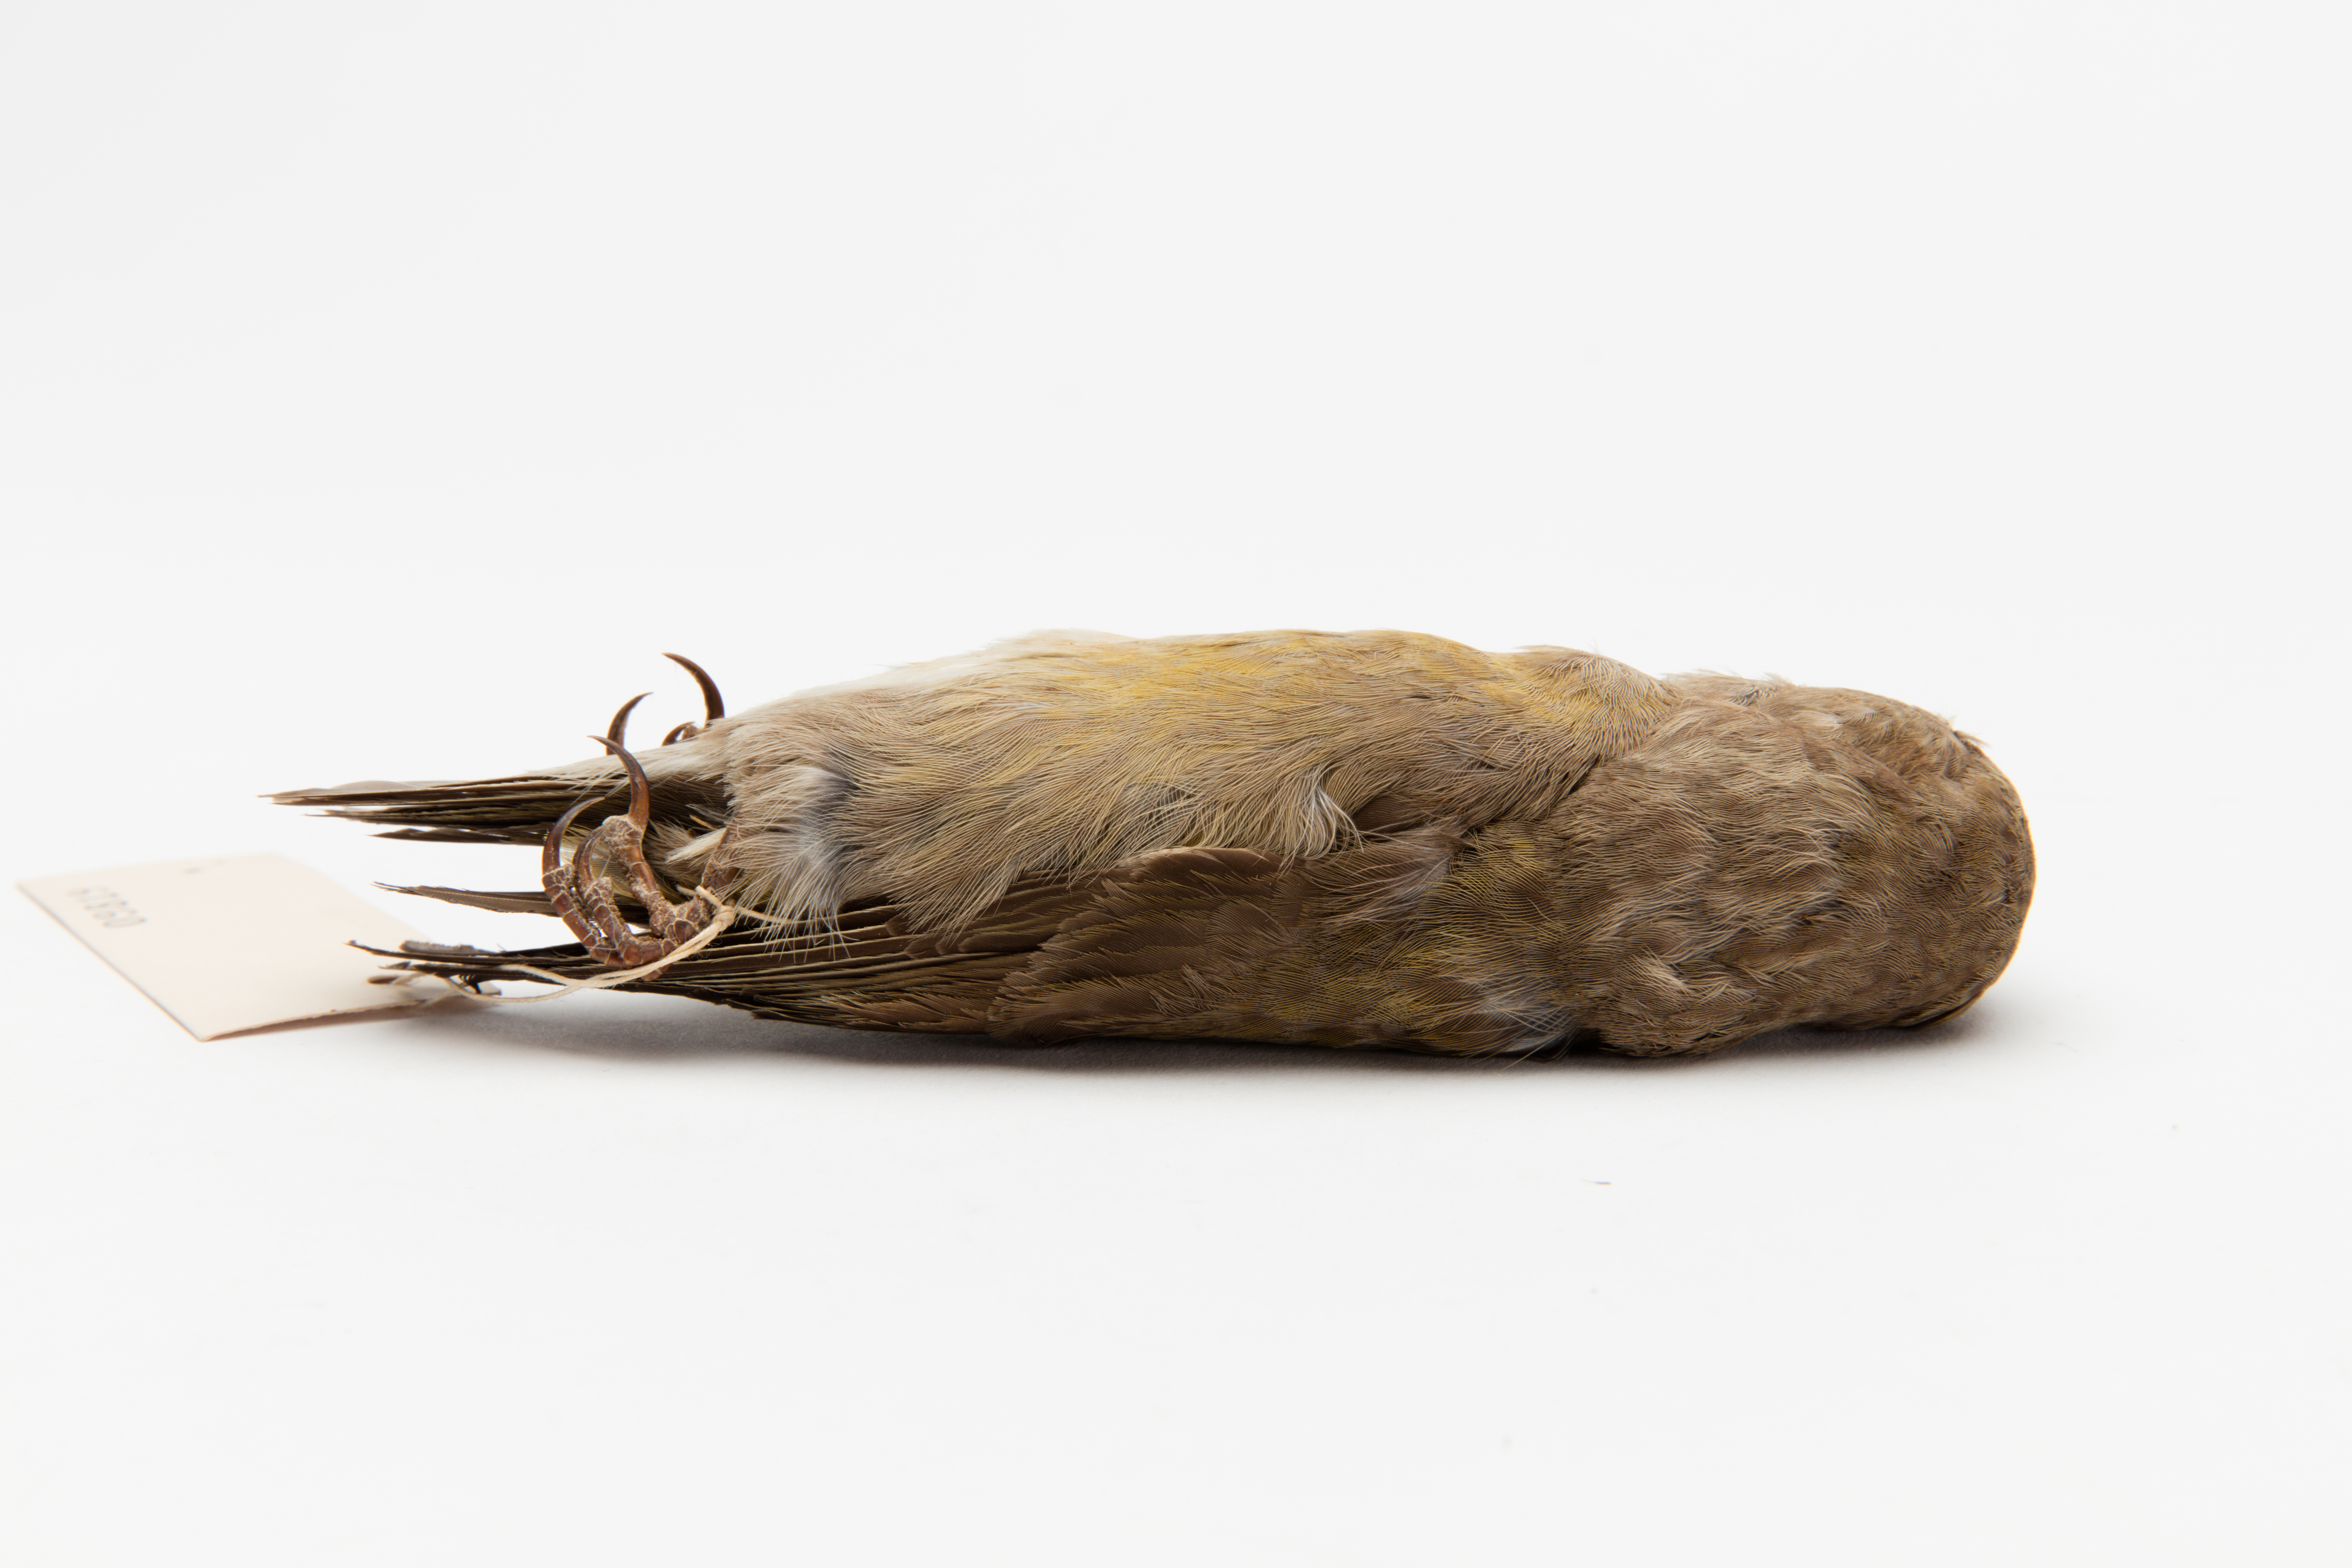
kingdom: Animalia
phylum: Chordata
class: Aves
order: Passeriformes
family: Fringillidae
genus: Loxia
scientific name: Loxia curvirostra
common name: Red crossbill
